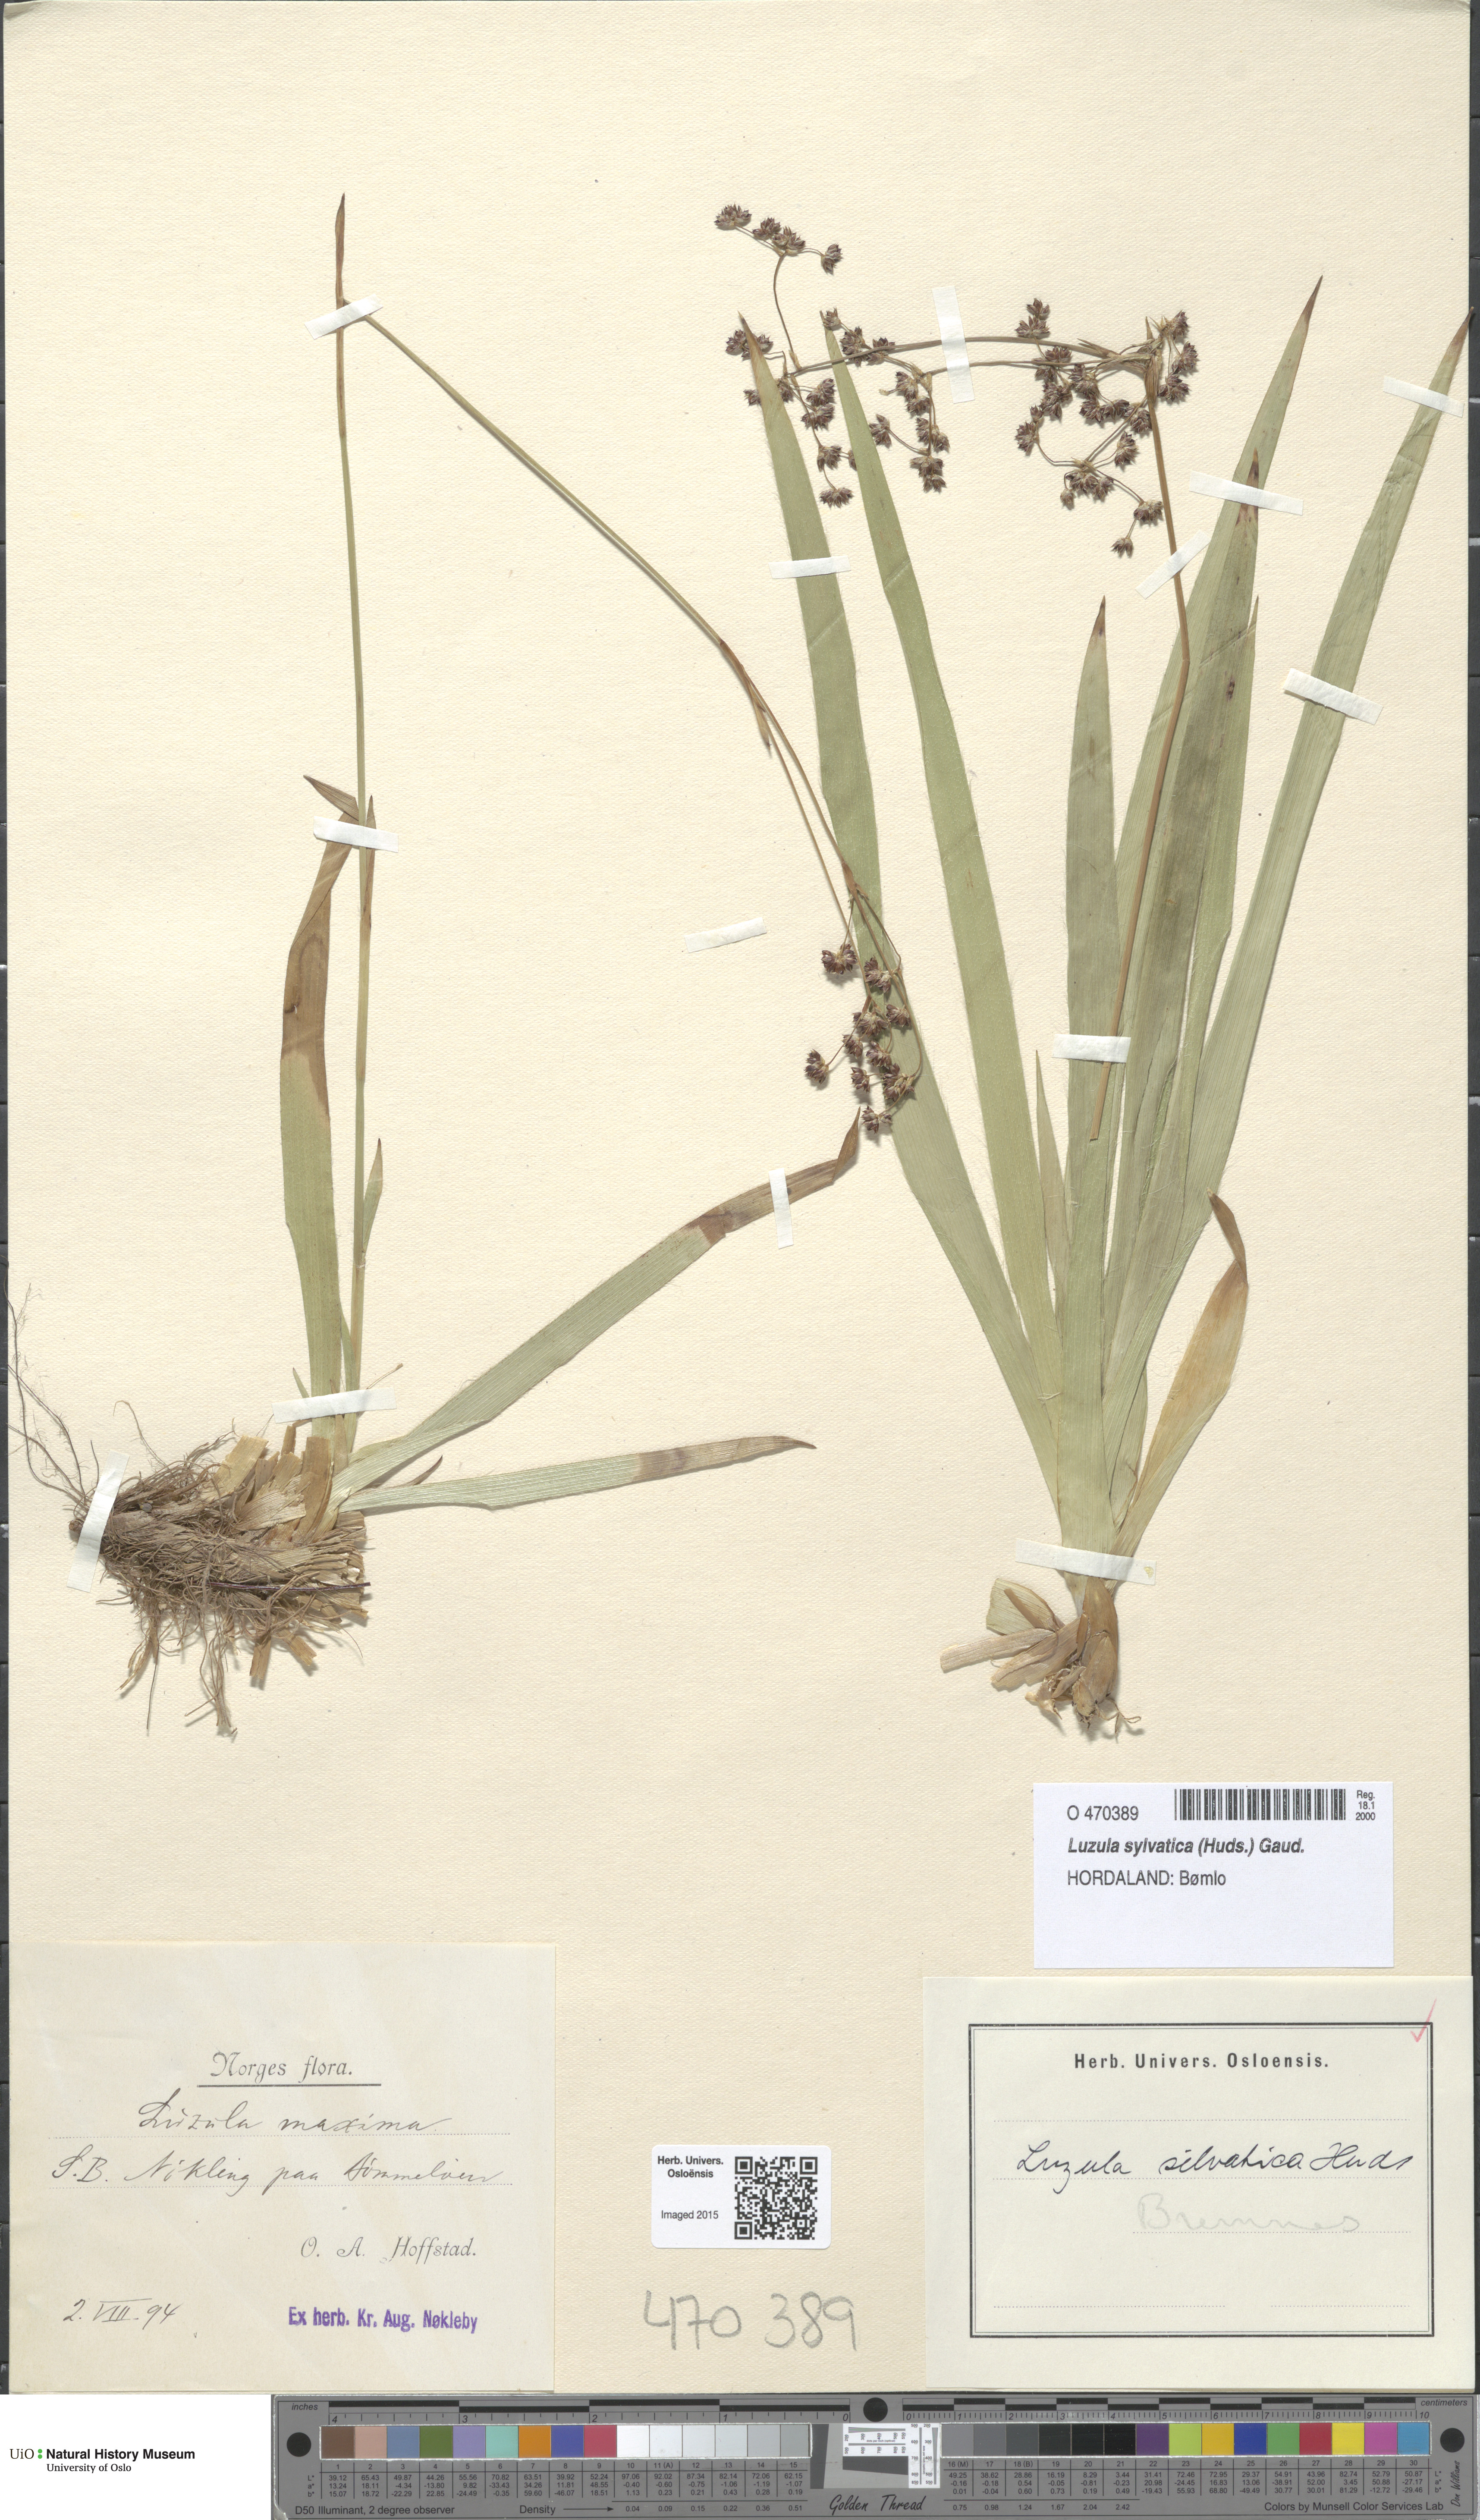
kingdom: Plantae
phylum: Tracheophyta
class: Liliopsida
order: Poales
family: Juncaceae
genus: Luzula
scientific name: Luzula sylvatica
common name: Great wood-rush
